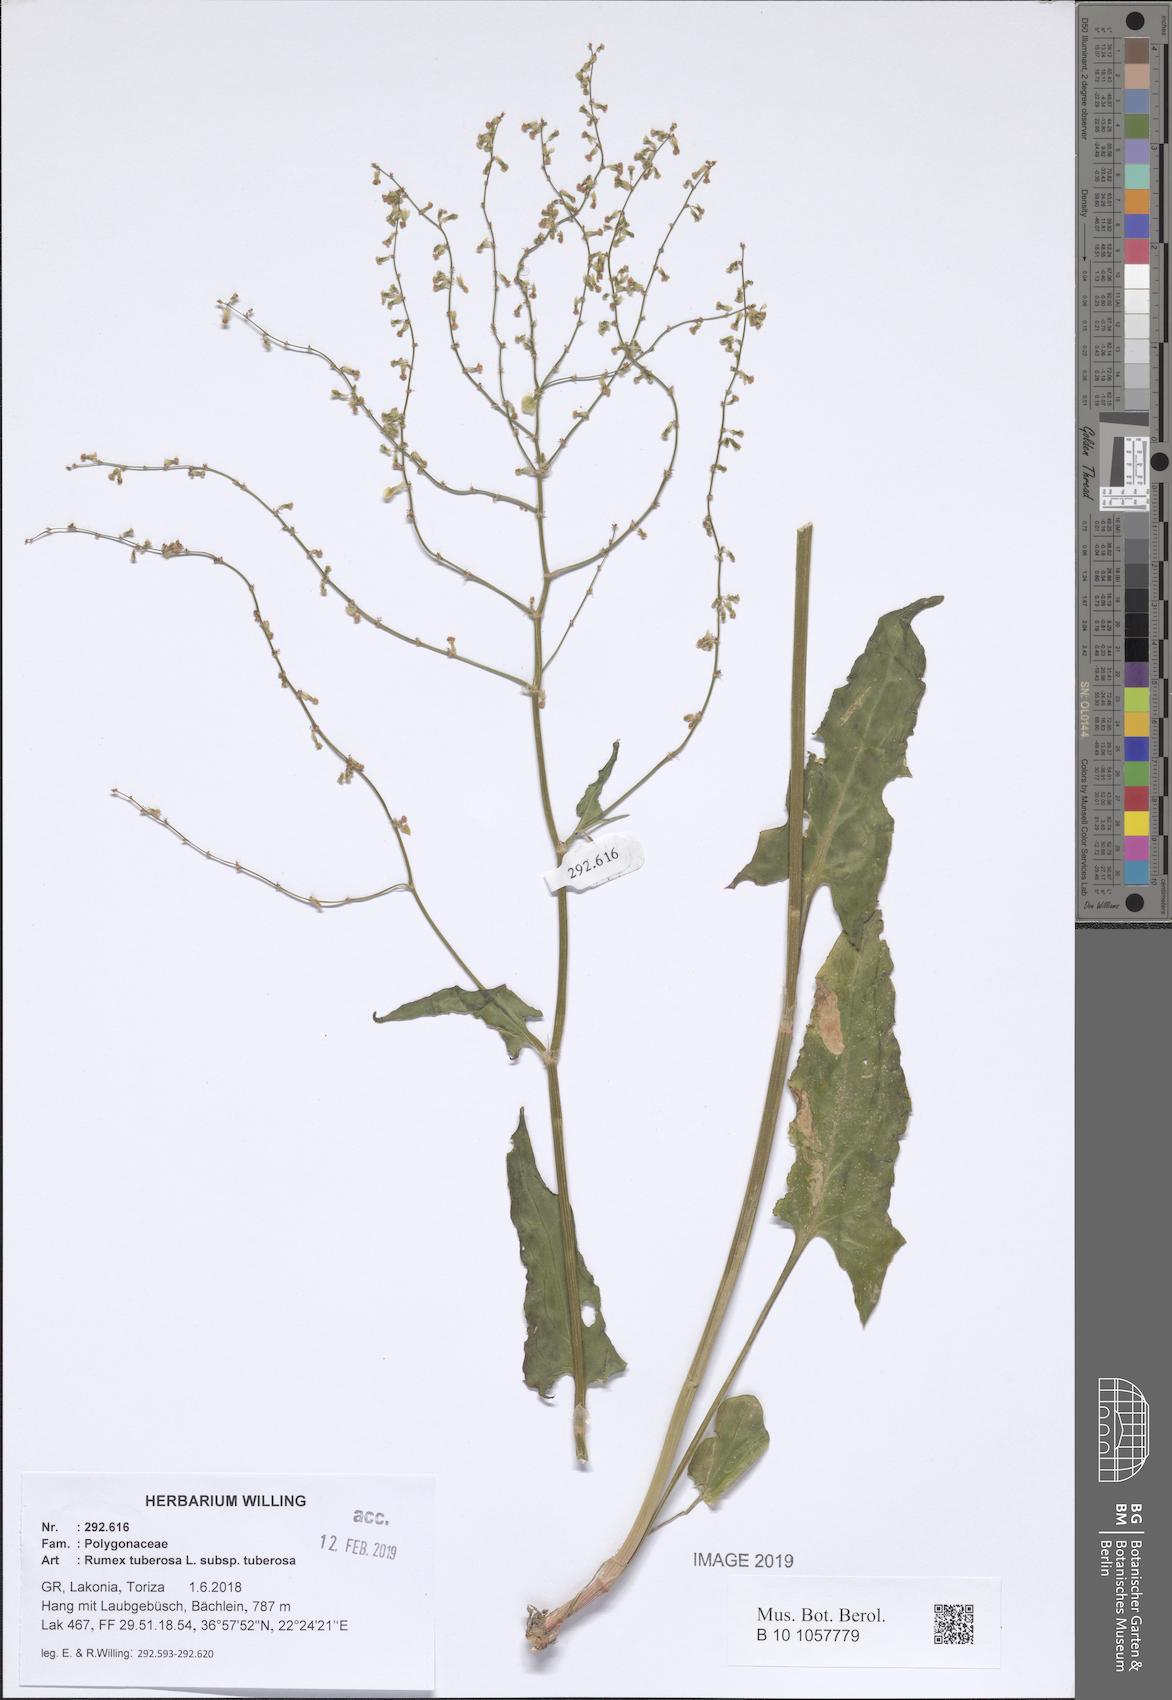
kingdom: Plantae
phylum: Tracheophyta
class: Magnoliopsida
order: Caryophyllales
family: Polygonaceae
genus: Rumex
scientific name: Rumex tuberosus
